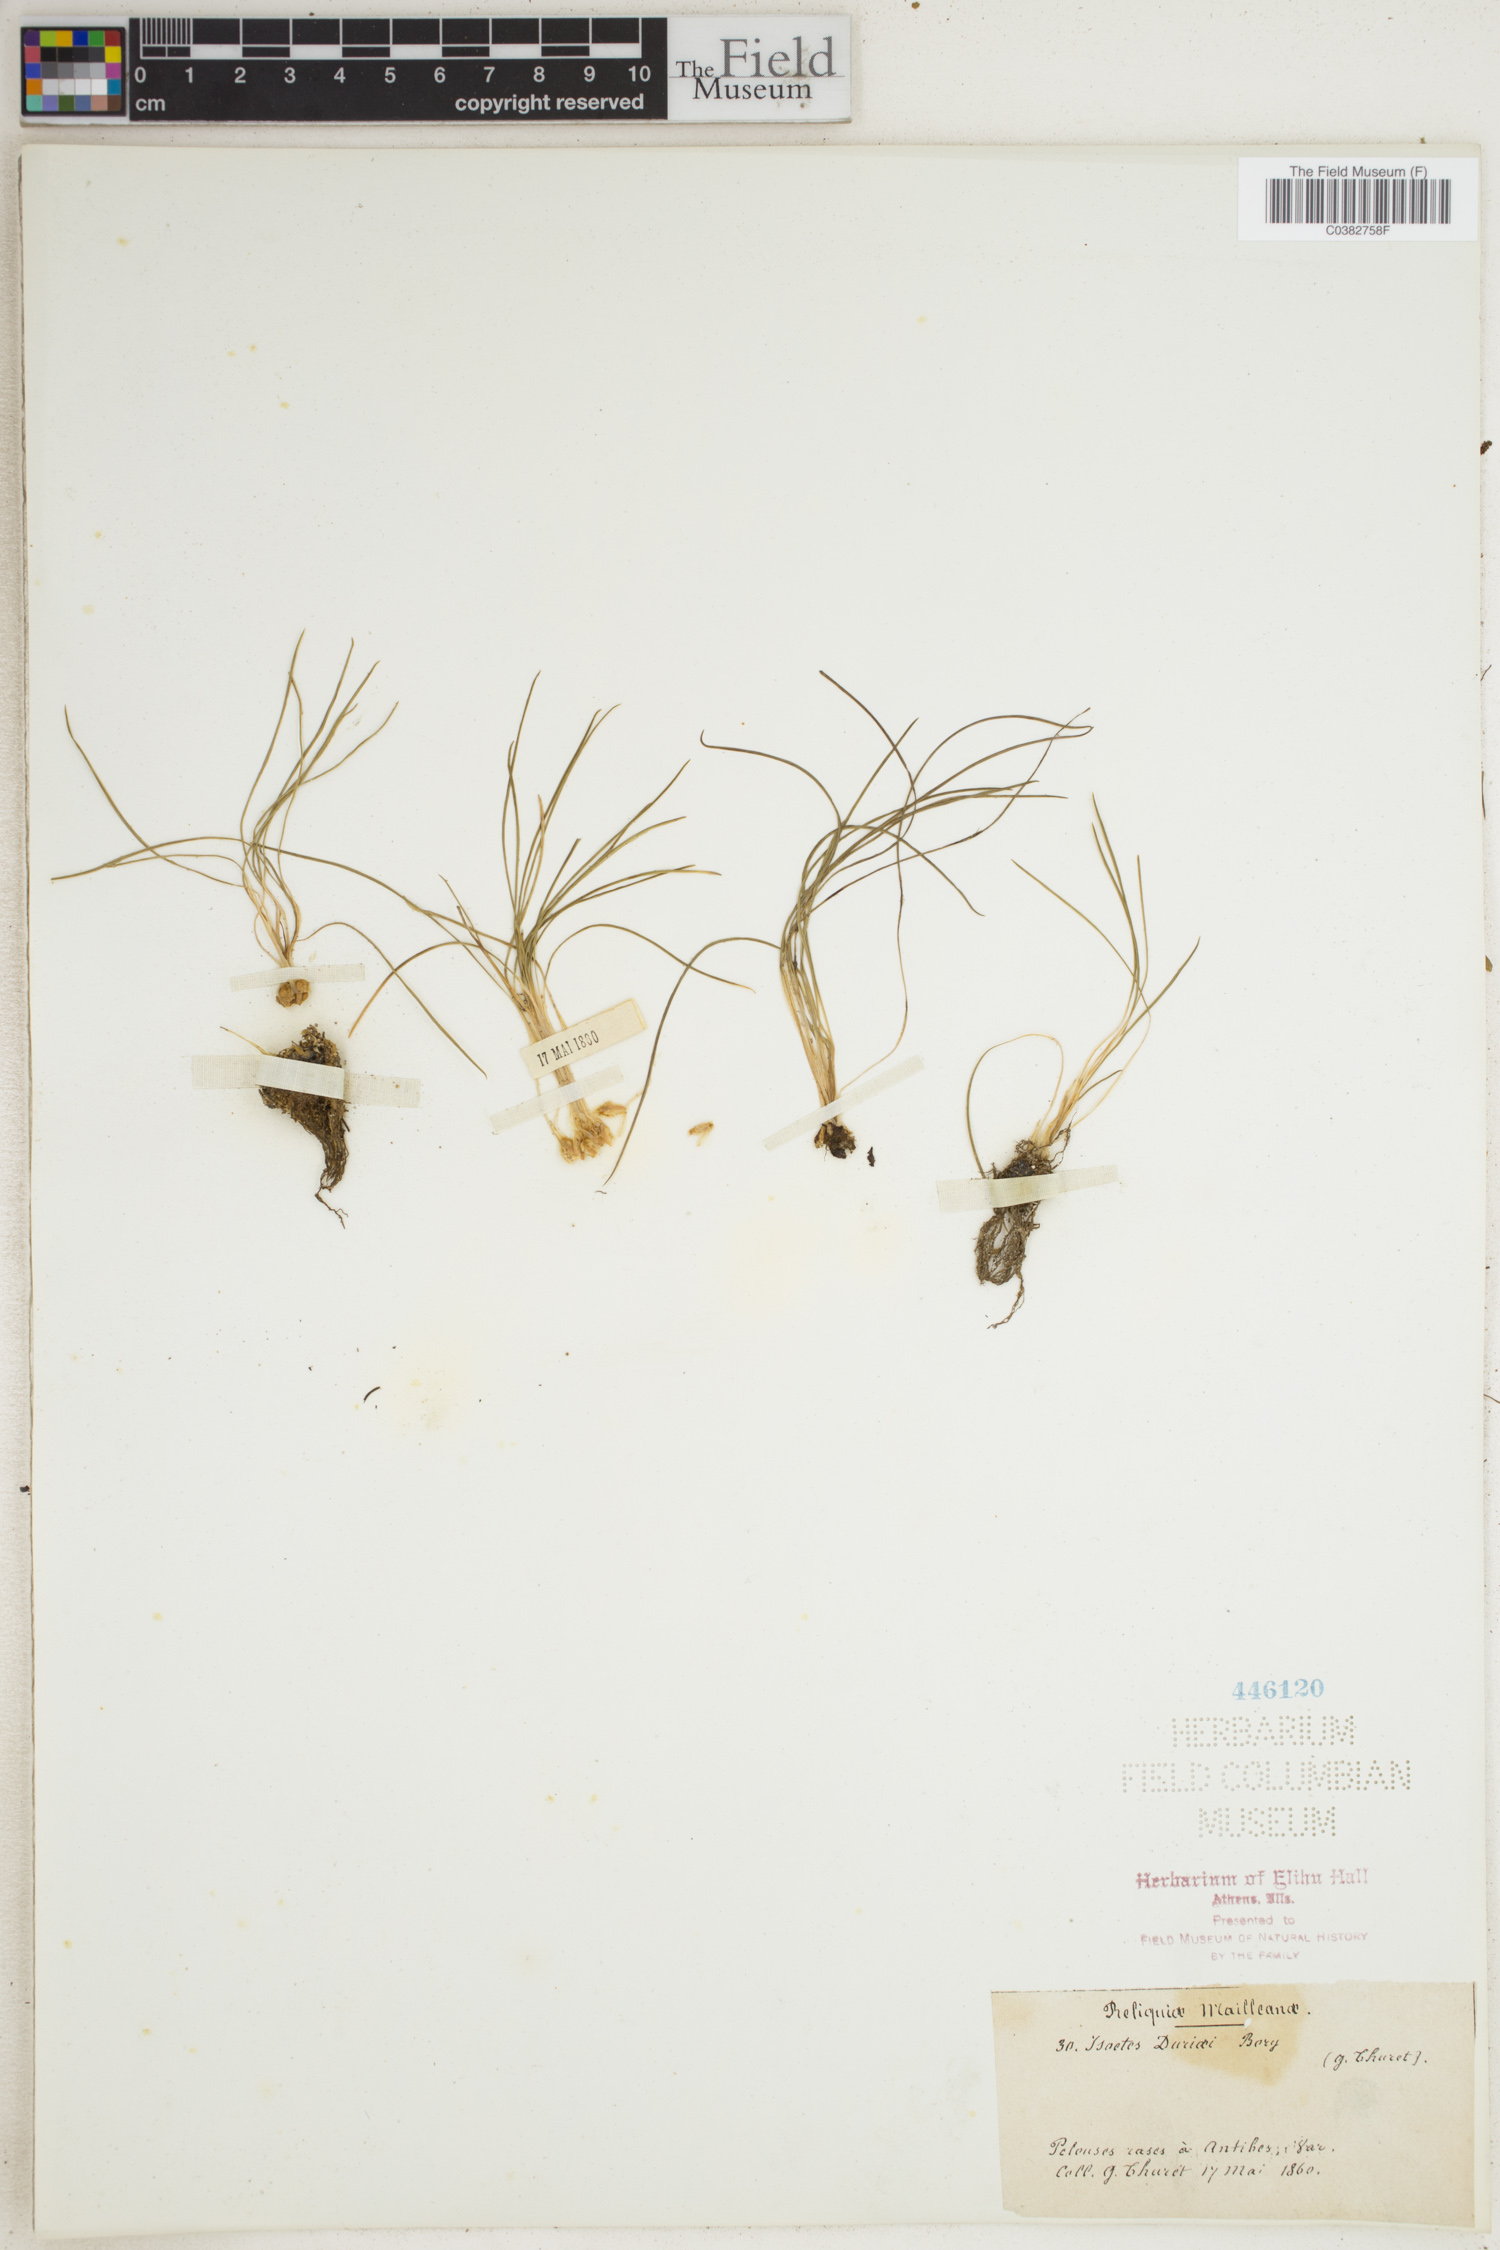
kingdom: Plantae
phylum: Tracheophyta
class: Lycopodiopsida
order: Isoetales
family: Isoetaceae
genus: Isoetes
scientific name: Isoetes duriei
